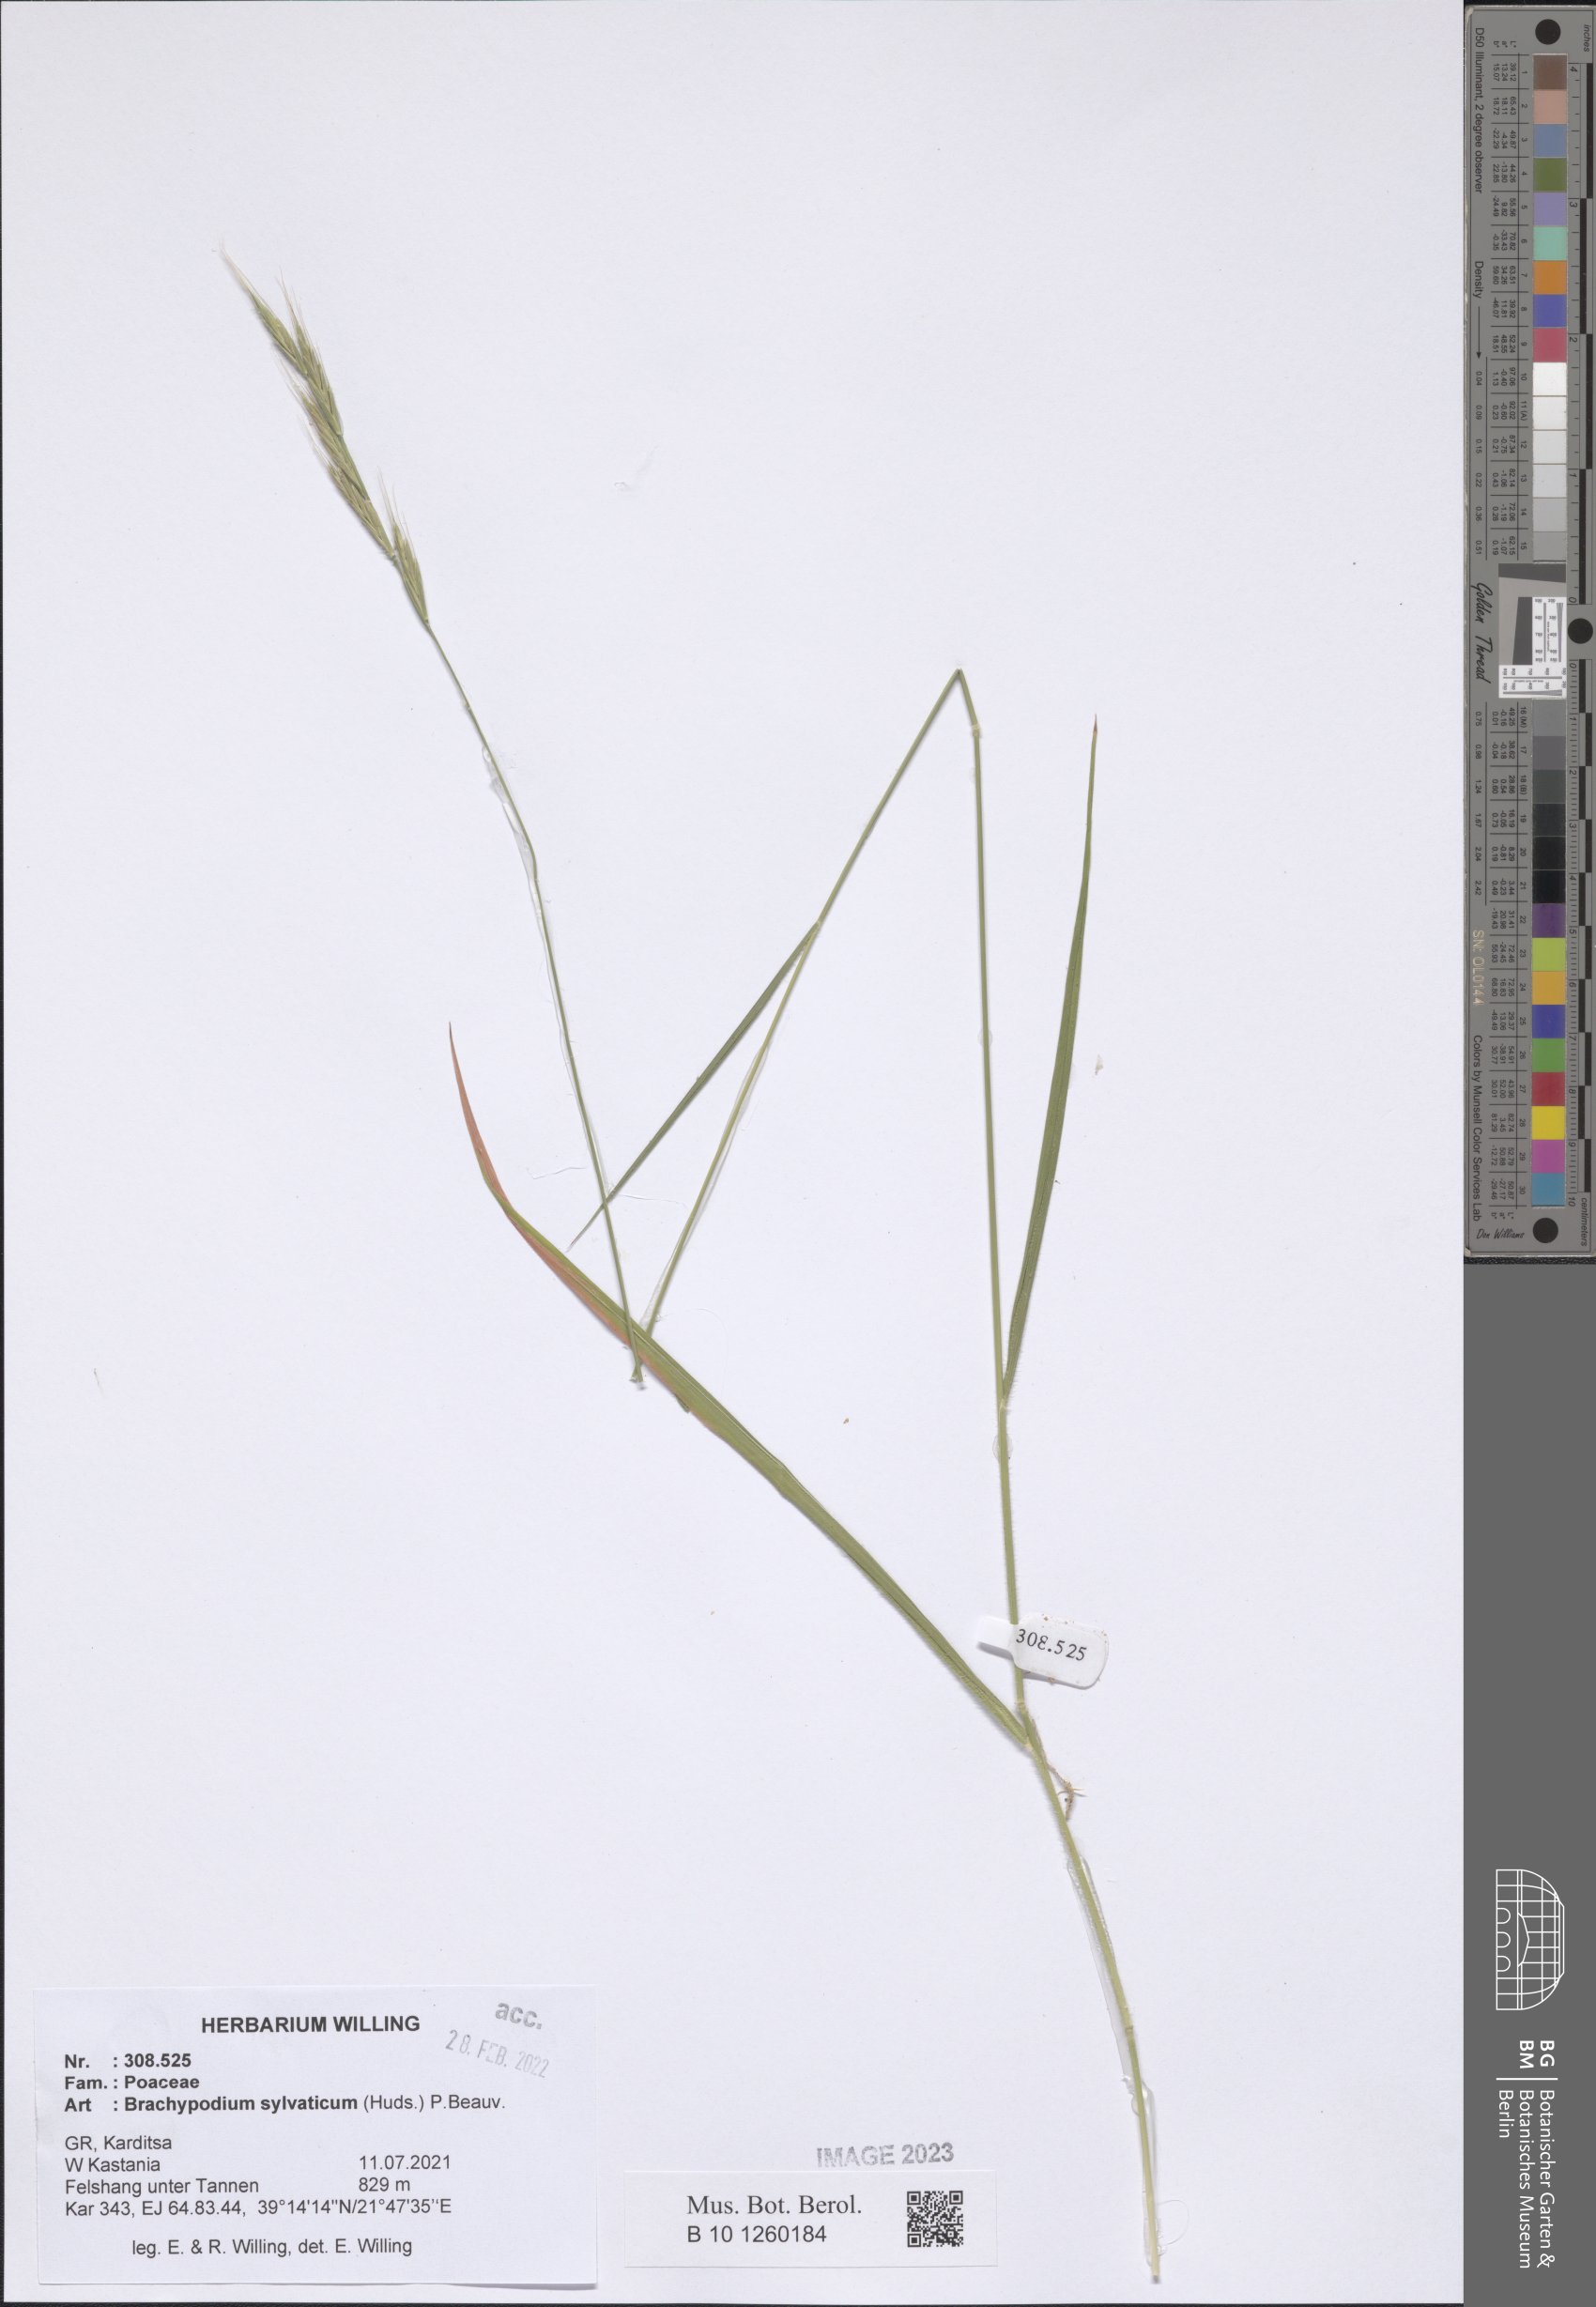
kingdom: Plantae
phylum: Tracheophyta
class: Liliopsida
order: Poales
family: Poaceae
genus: Brachypodium
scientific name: Brachypodium sylvaticum
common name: False-brome
